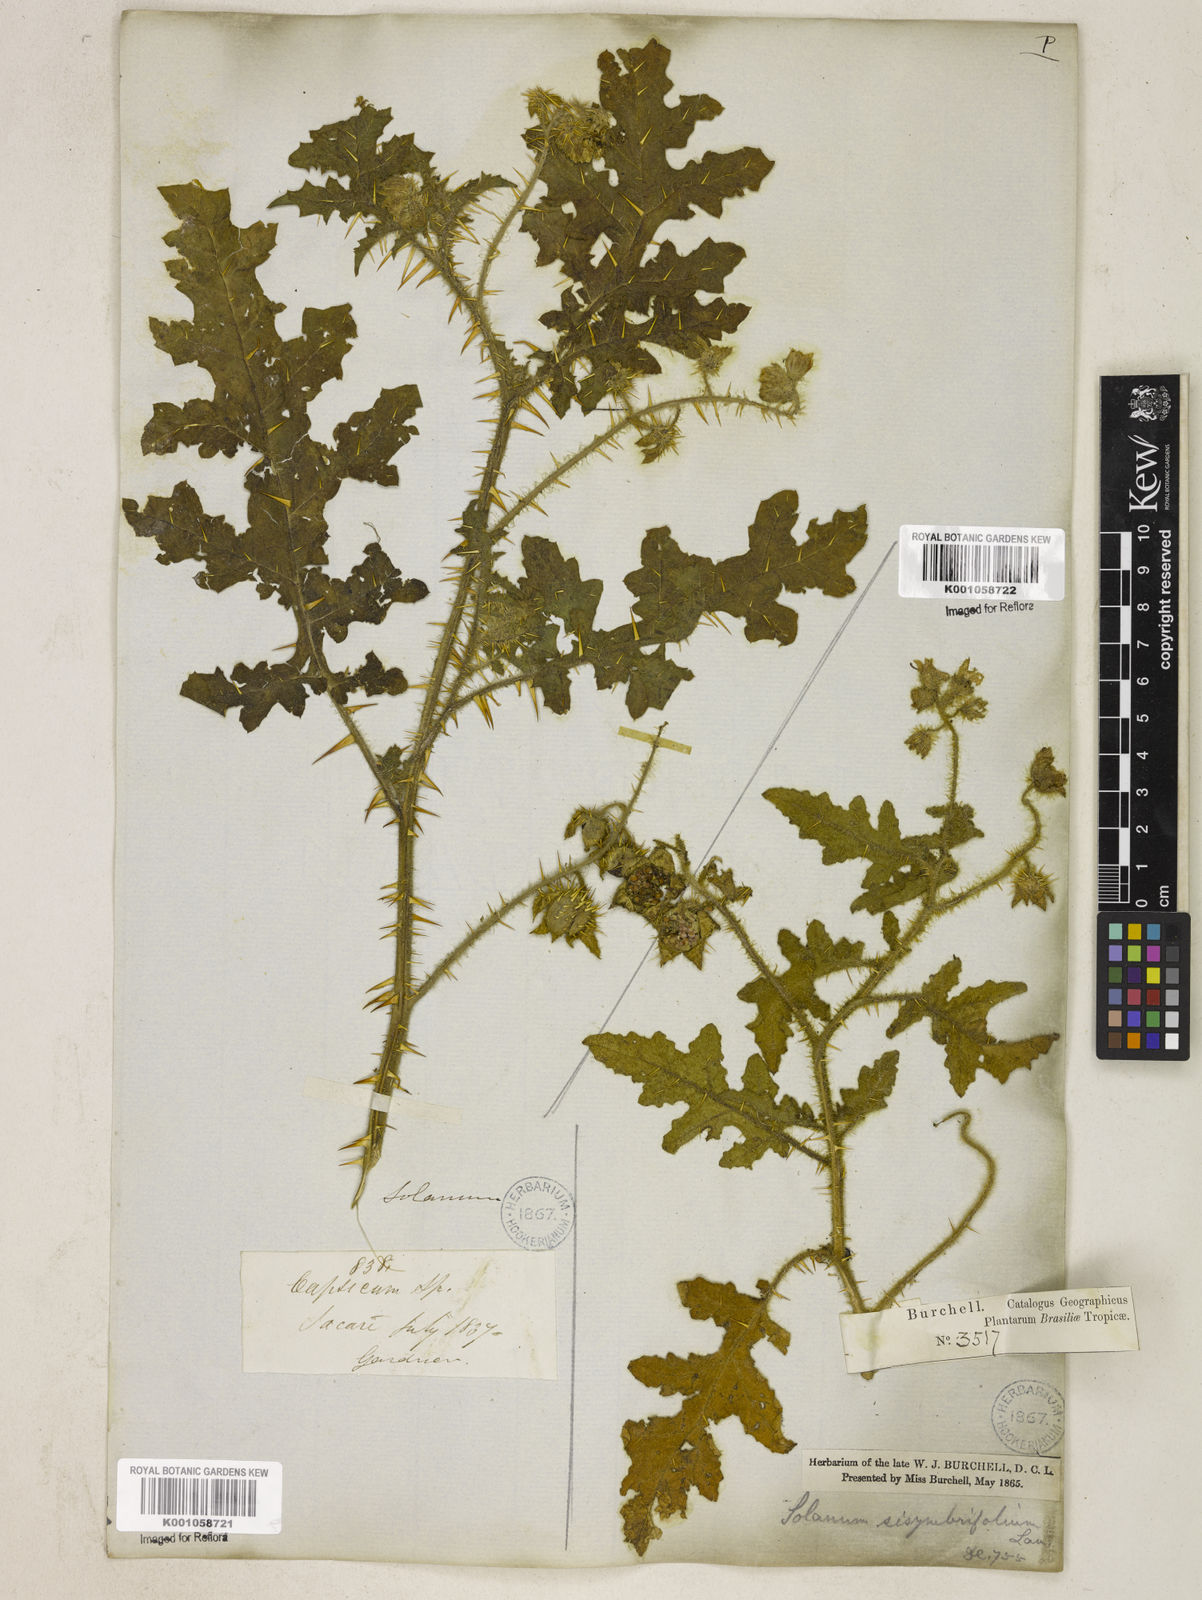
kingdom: Plantae
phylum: Tracheophyta
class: Magnoliopsida
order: Solanales
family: Solanaceae
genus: Solanum
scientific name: Solanum sisymbriifolium
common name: Red buffalo-bur
